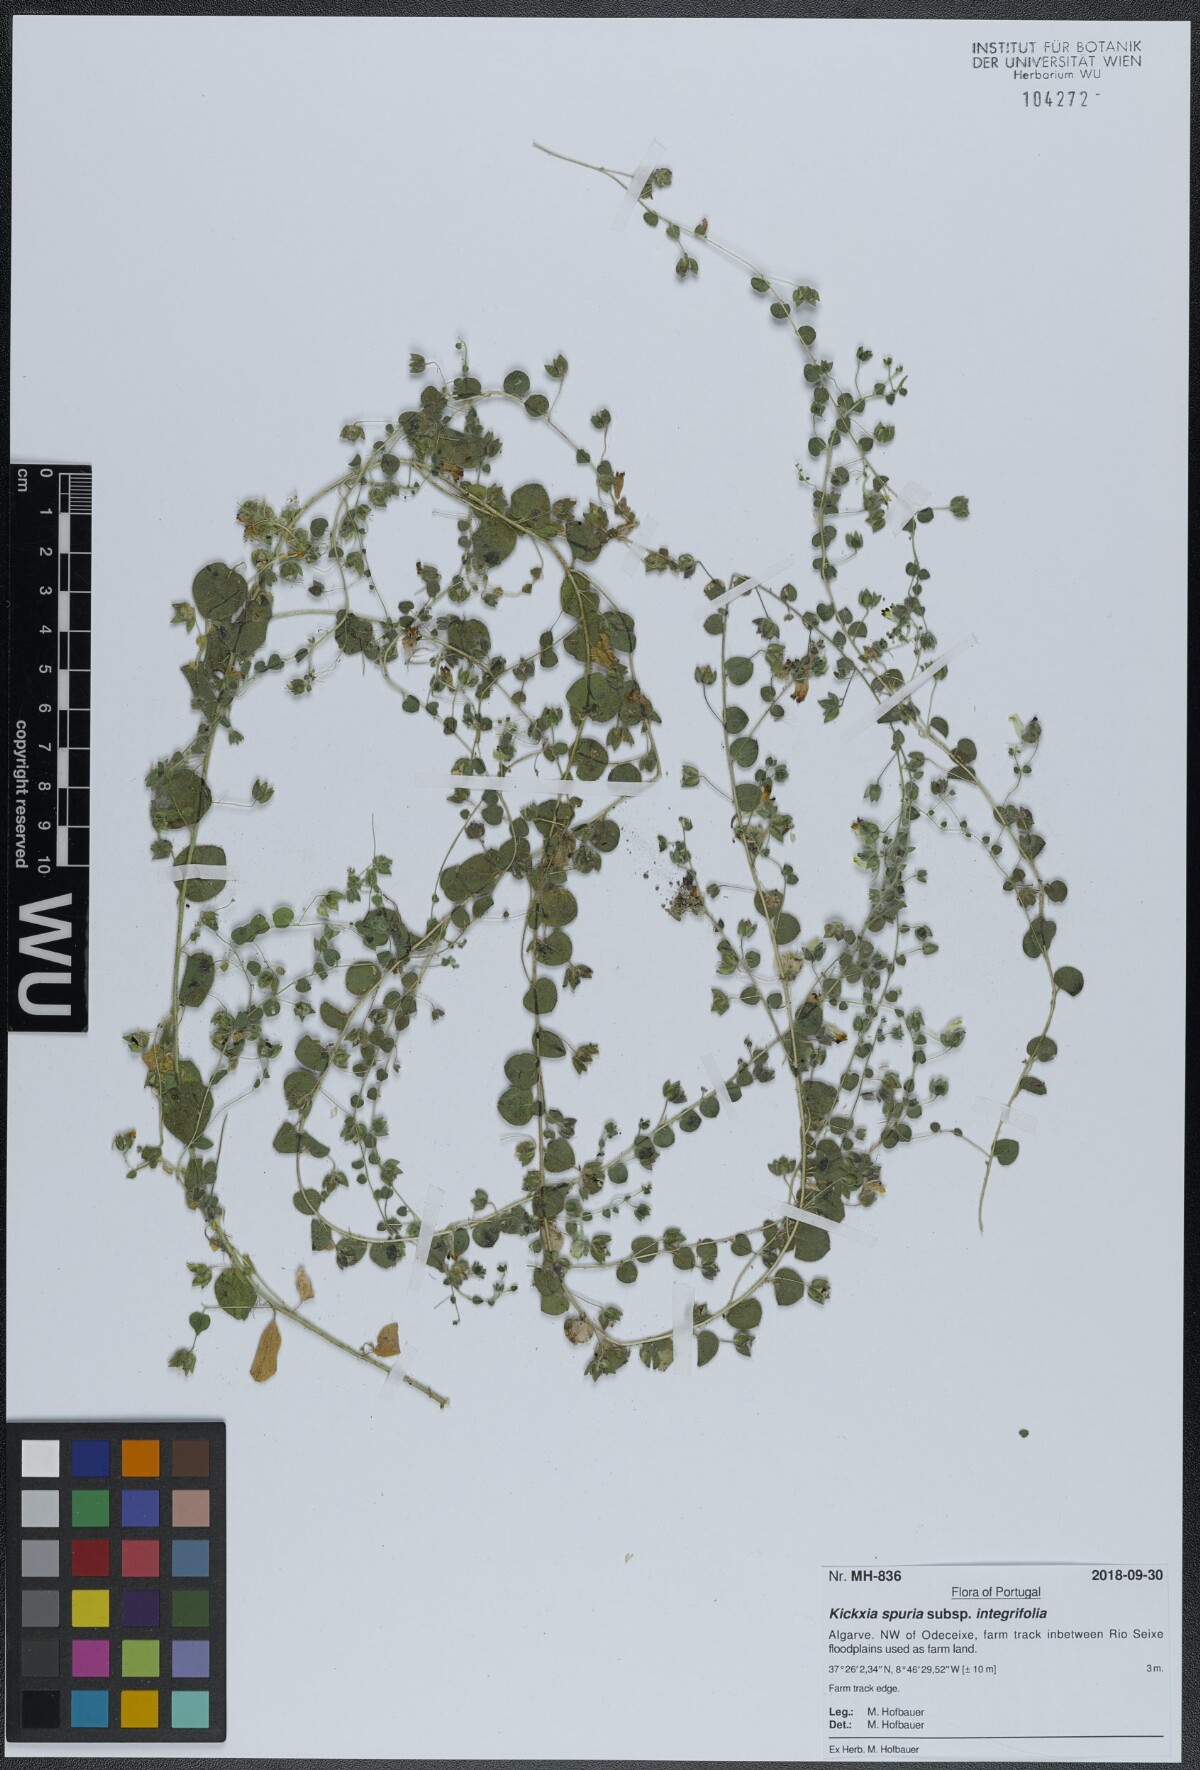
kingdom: Plantae
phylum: Tracheophyta
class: Magnoliopsida
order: Lamiales
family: Plantaginaceae
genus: Kickxia
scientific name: Kickxia spuria
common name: Round-leaved fluellen
